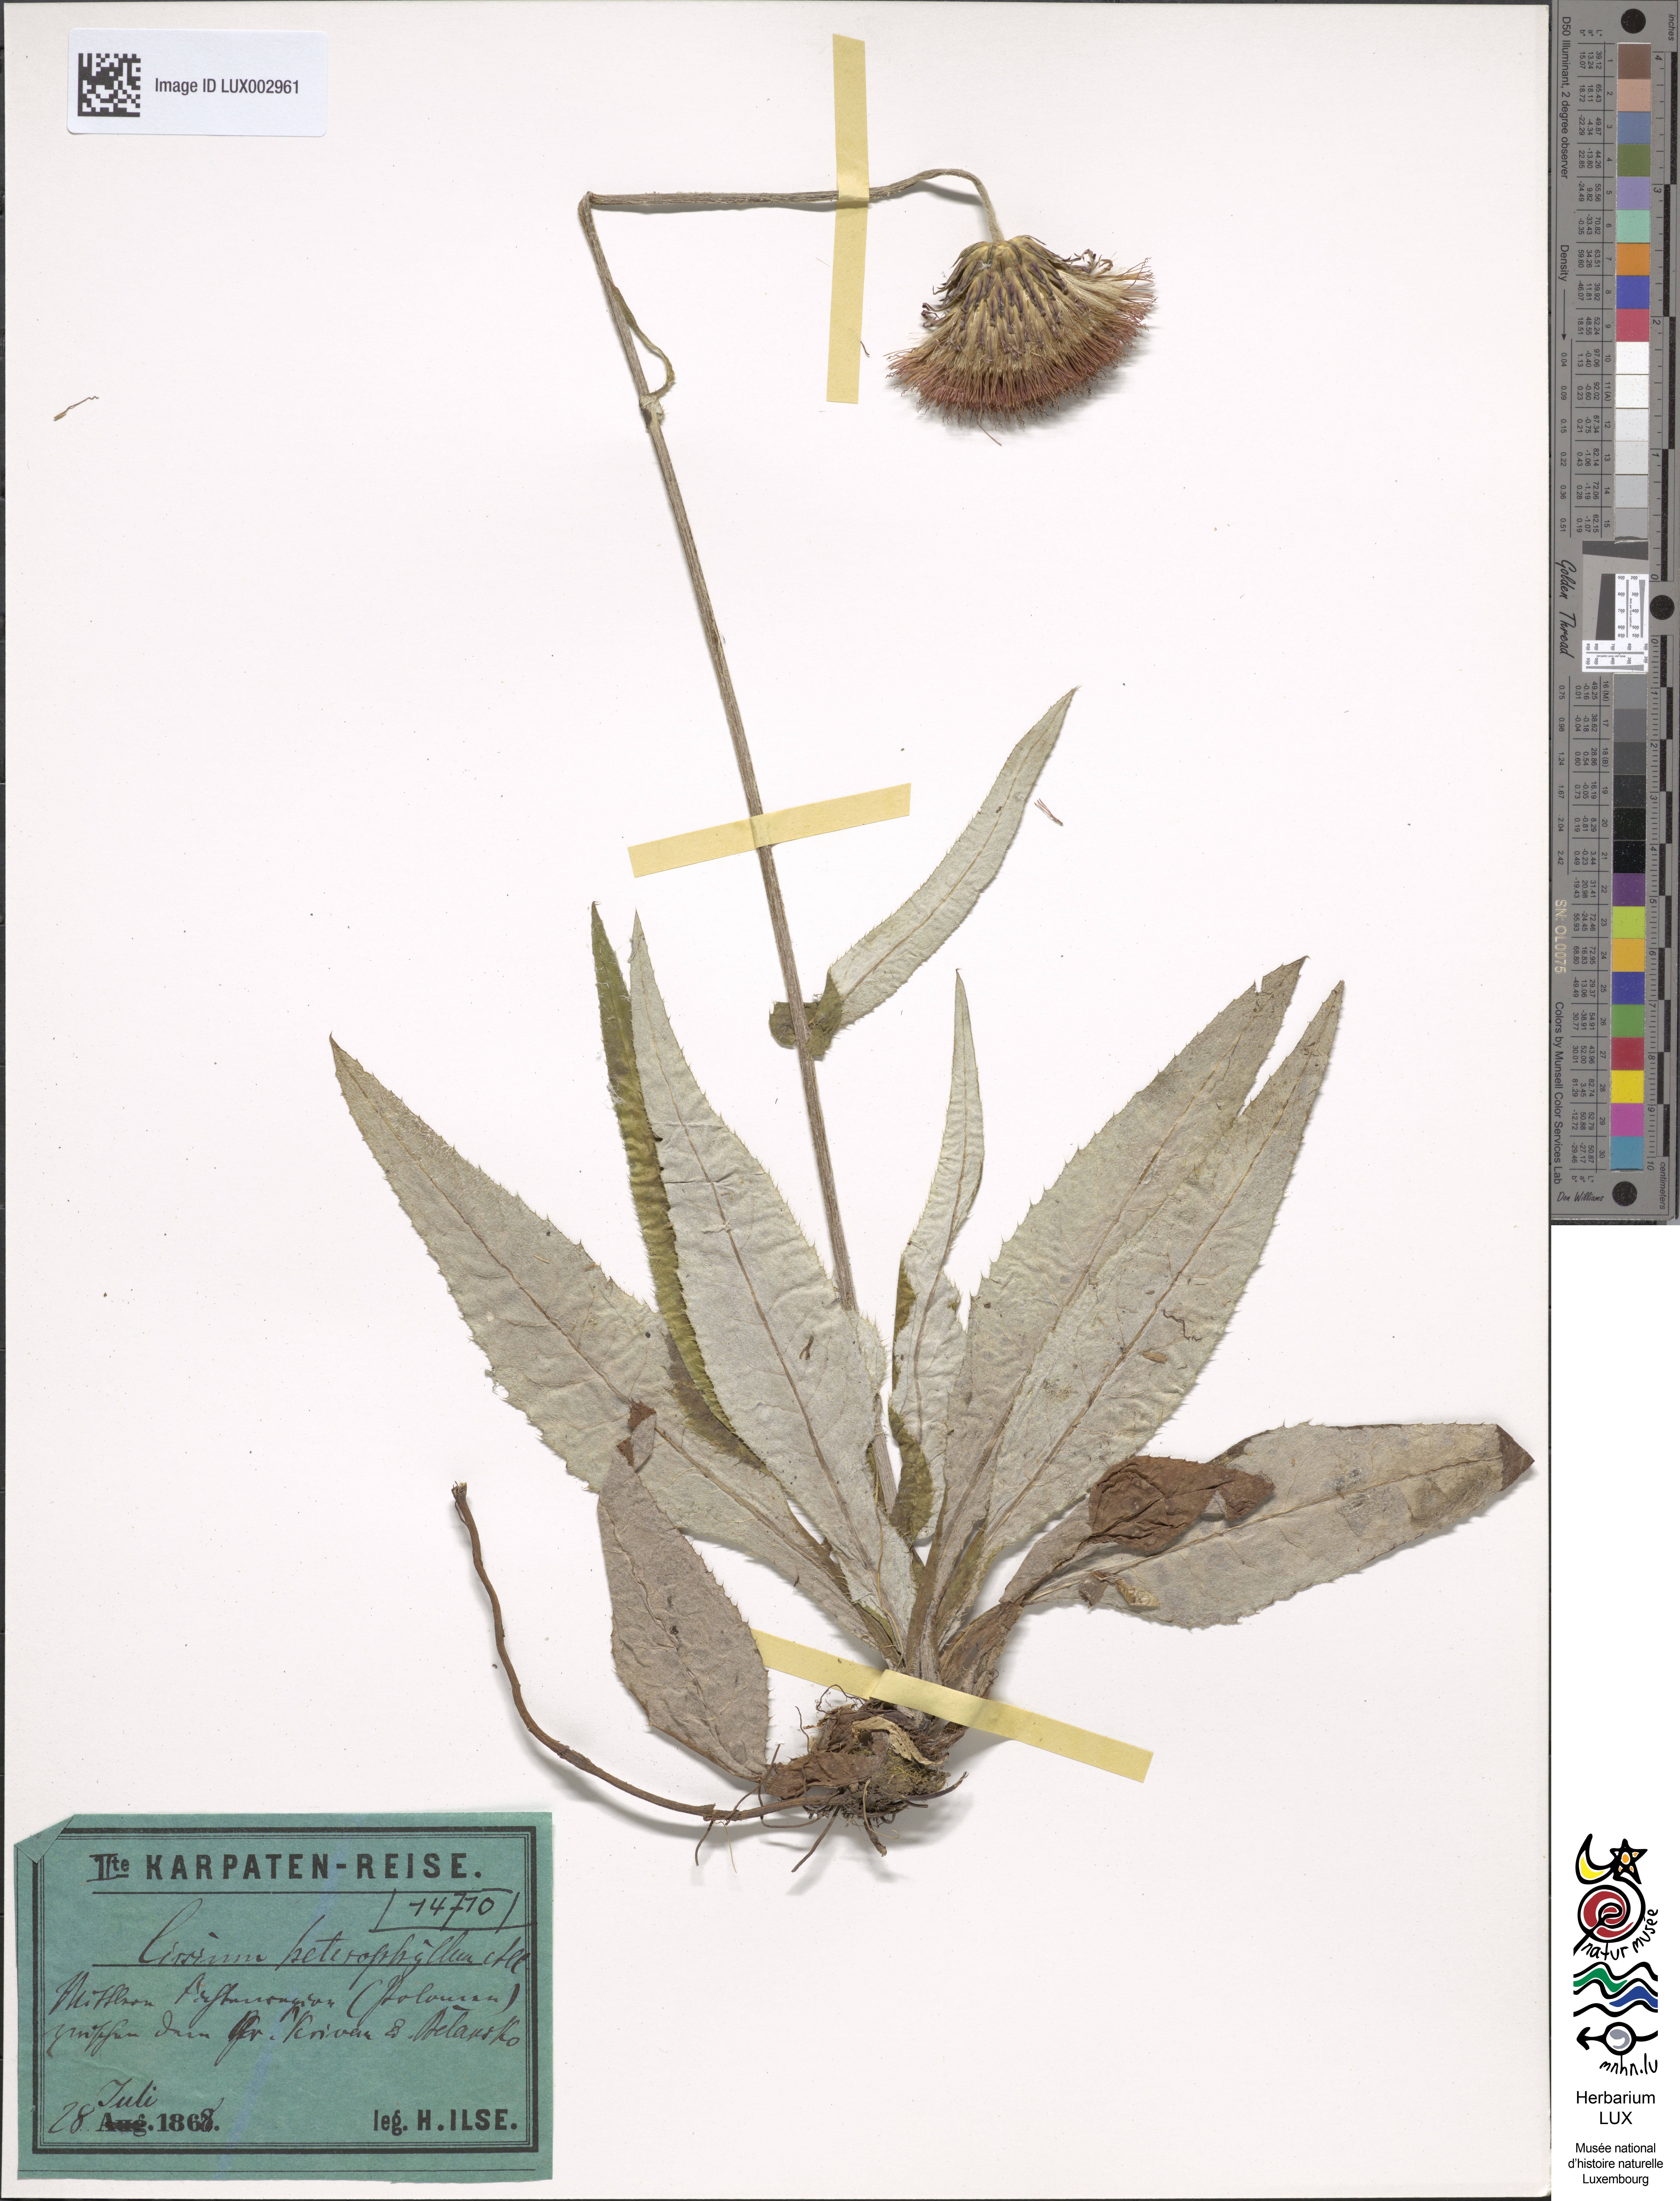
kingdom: Plantae
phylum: Tracheophyta
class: Magnoliopsida
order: Asterales
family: Asteraceae
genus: Cirsium
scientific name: Cirsium heterophyllum
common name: Melancholy thistle
